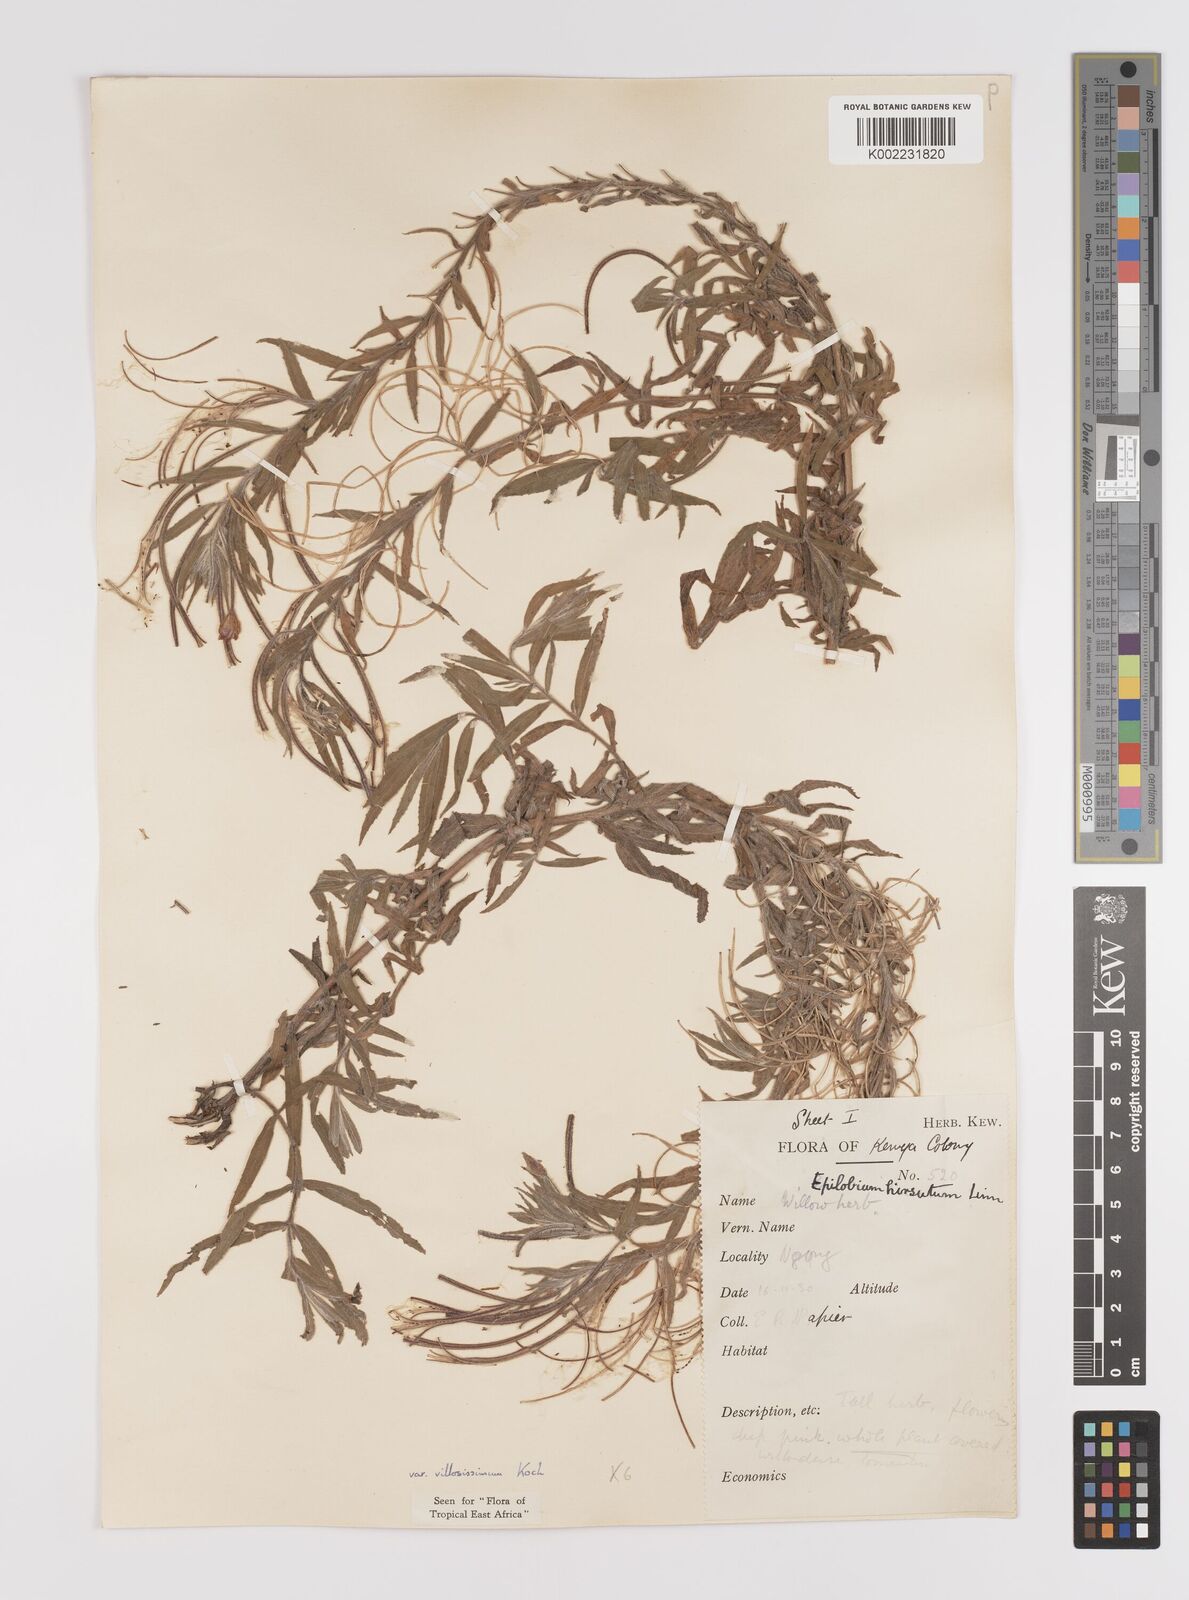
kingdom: Plantae
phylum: Tracheophyta
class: Magnoliopsida
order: Myrtales
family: Onagraceae
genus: Epilobium
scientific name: Epilobium hirsutum
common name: Great willowherb
